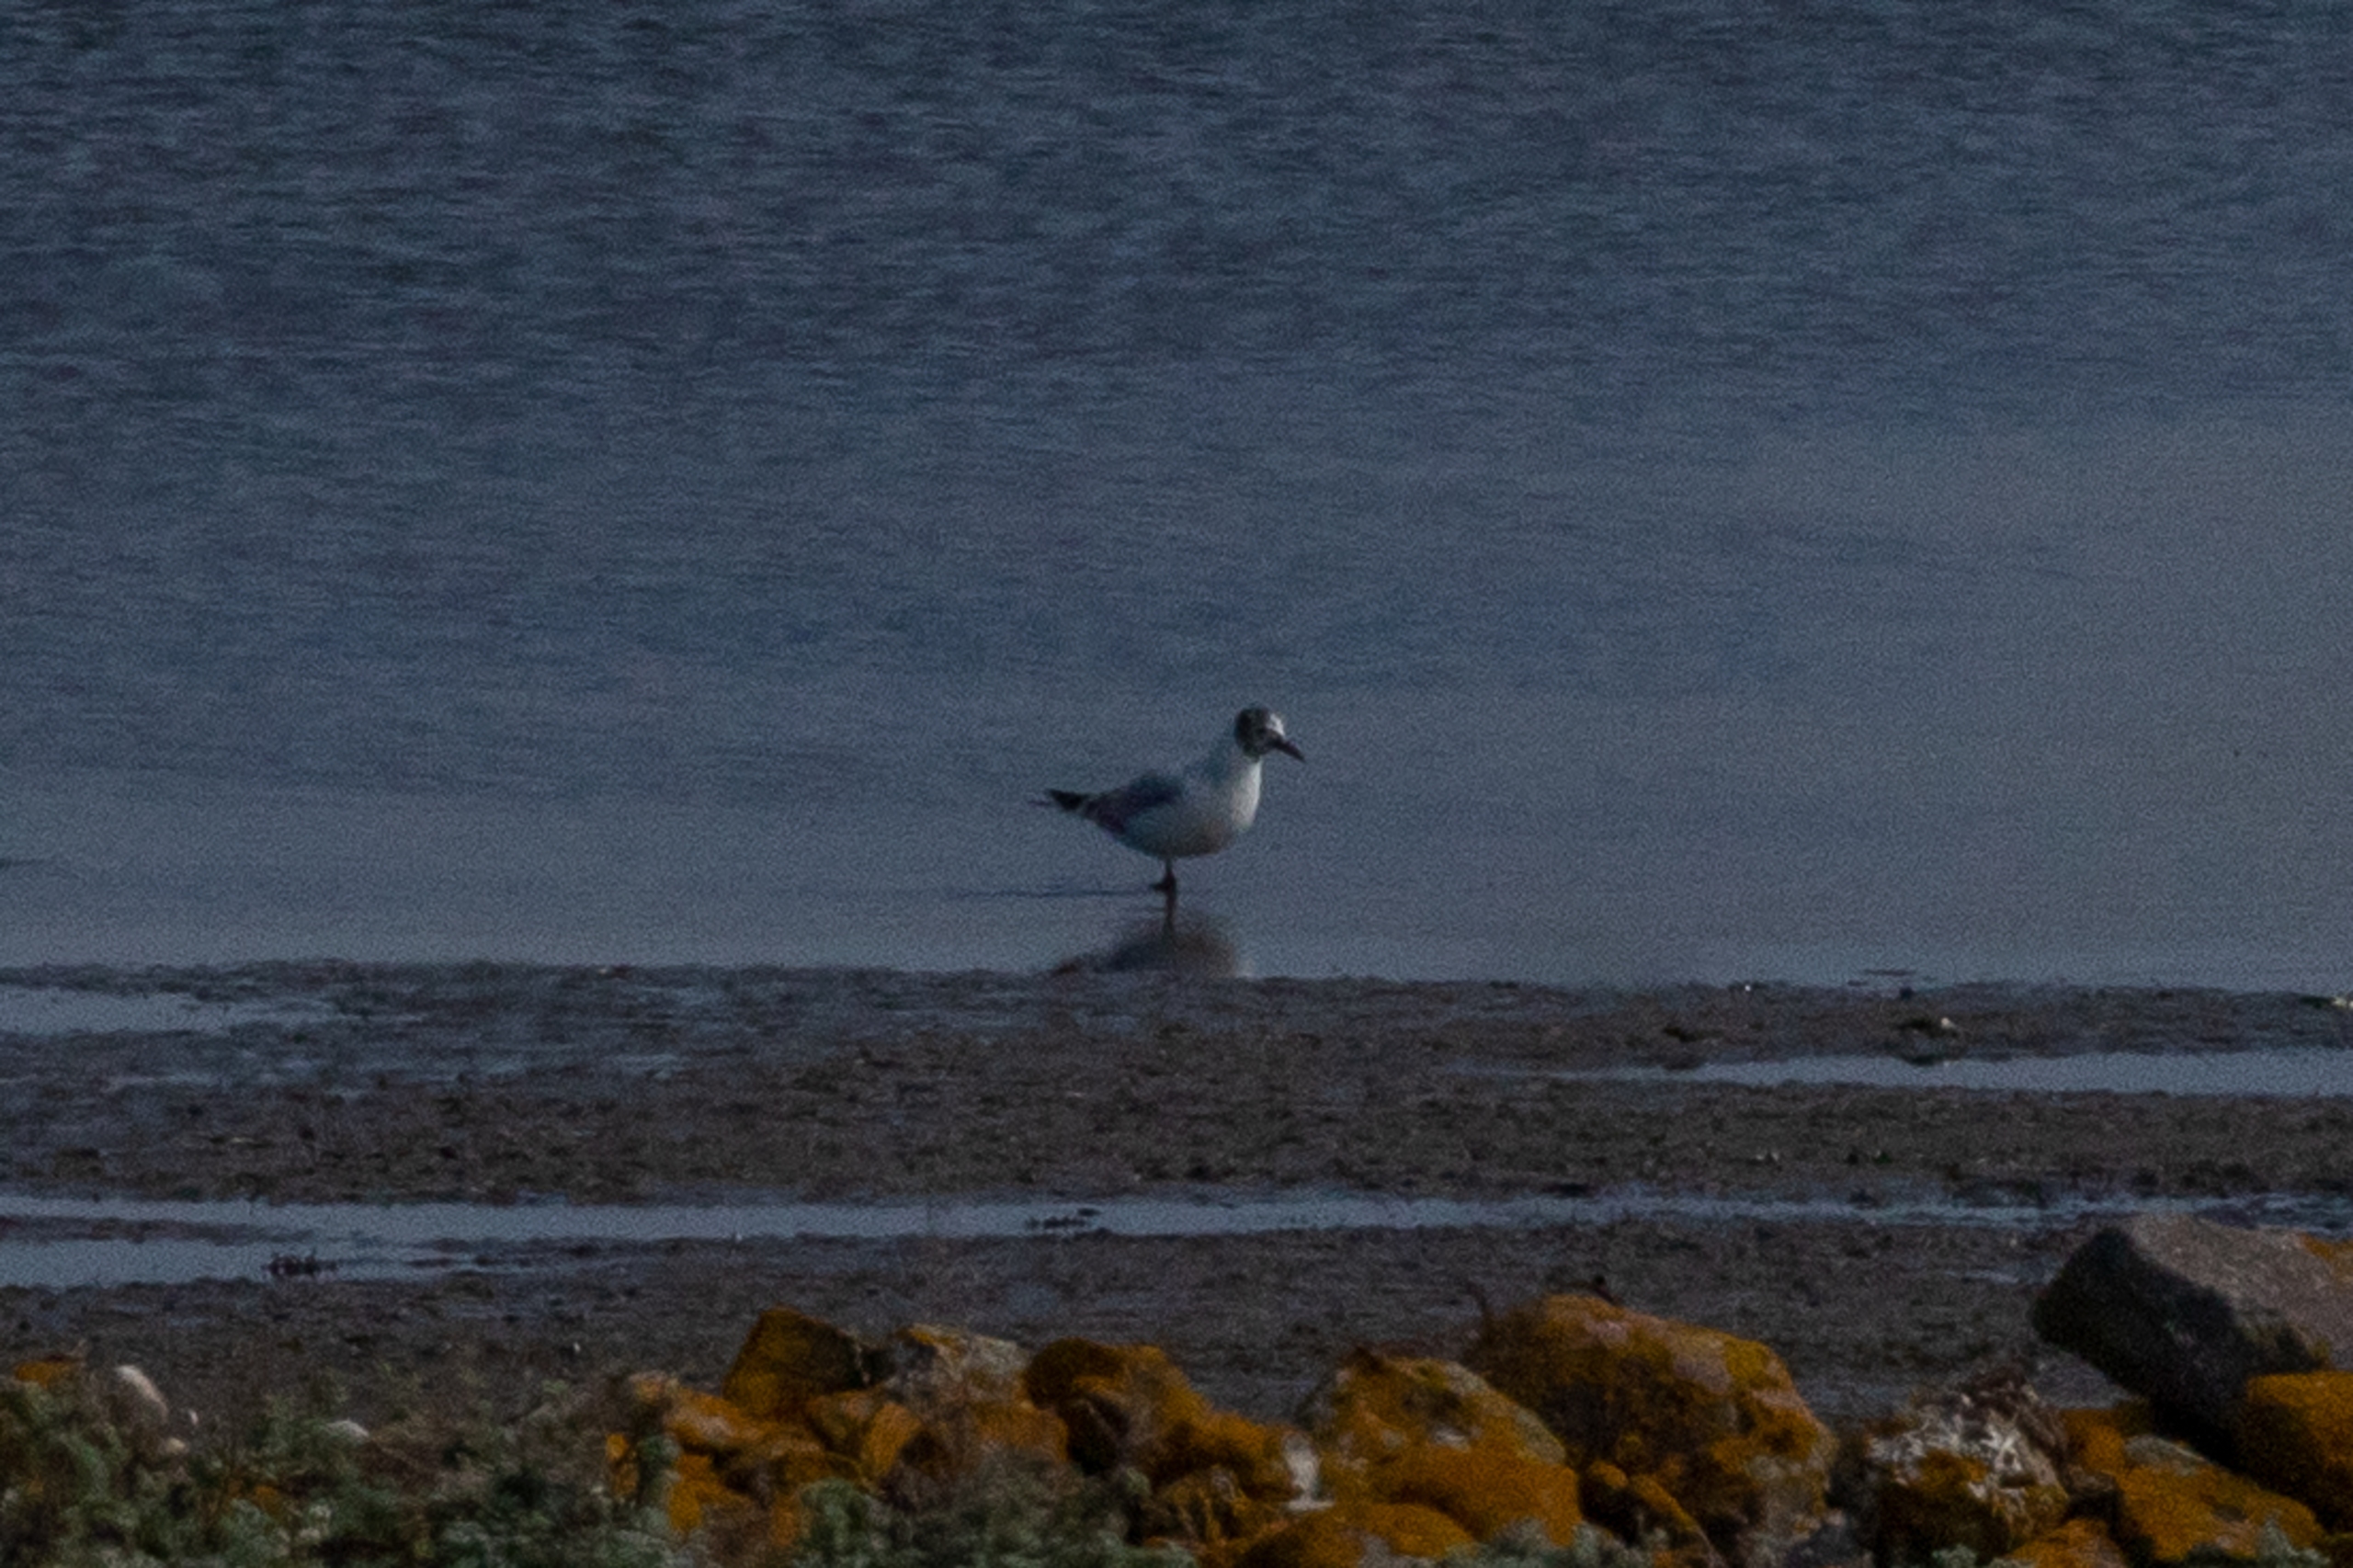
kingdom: Animalia
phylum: Chordata
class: Aves
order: Charadriiformes
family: Laridae
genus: Chroicocephalus
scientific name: Chroicocephalus ridibundus
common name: Hættemåge
